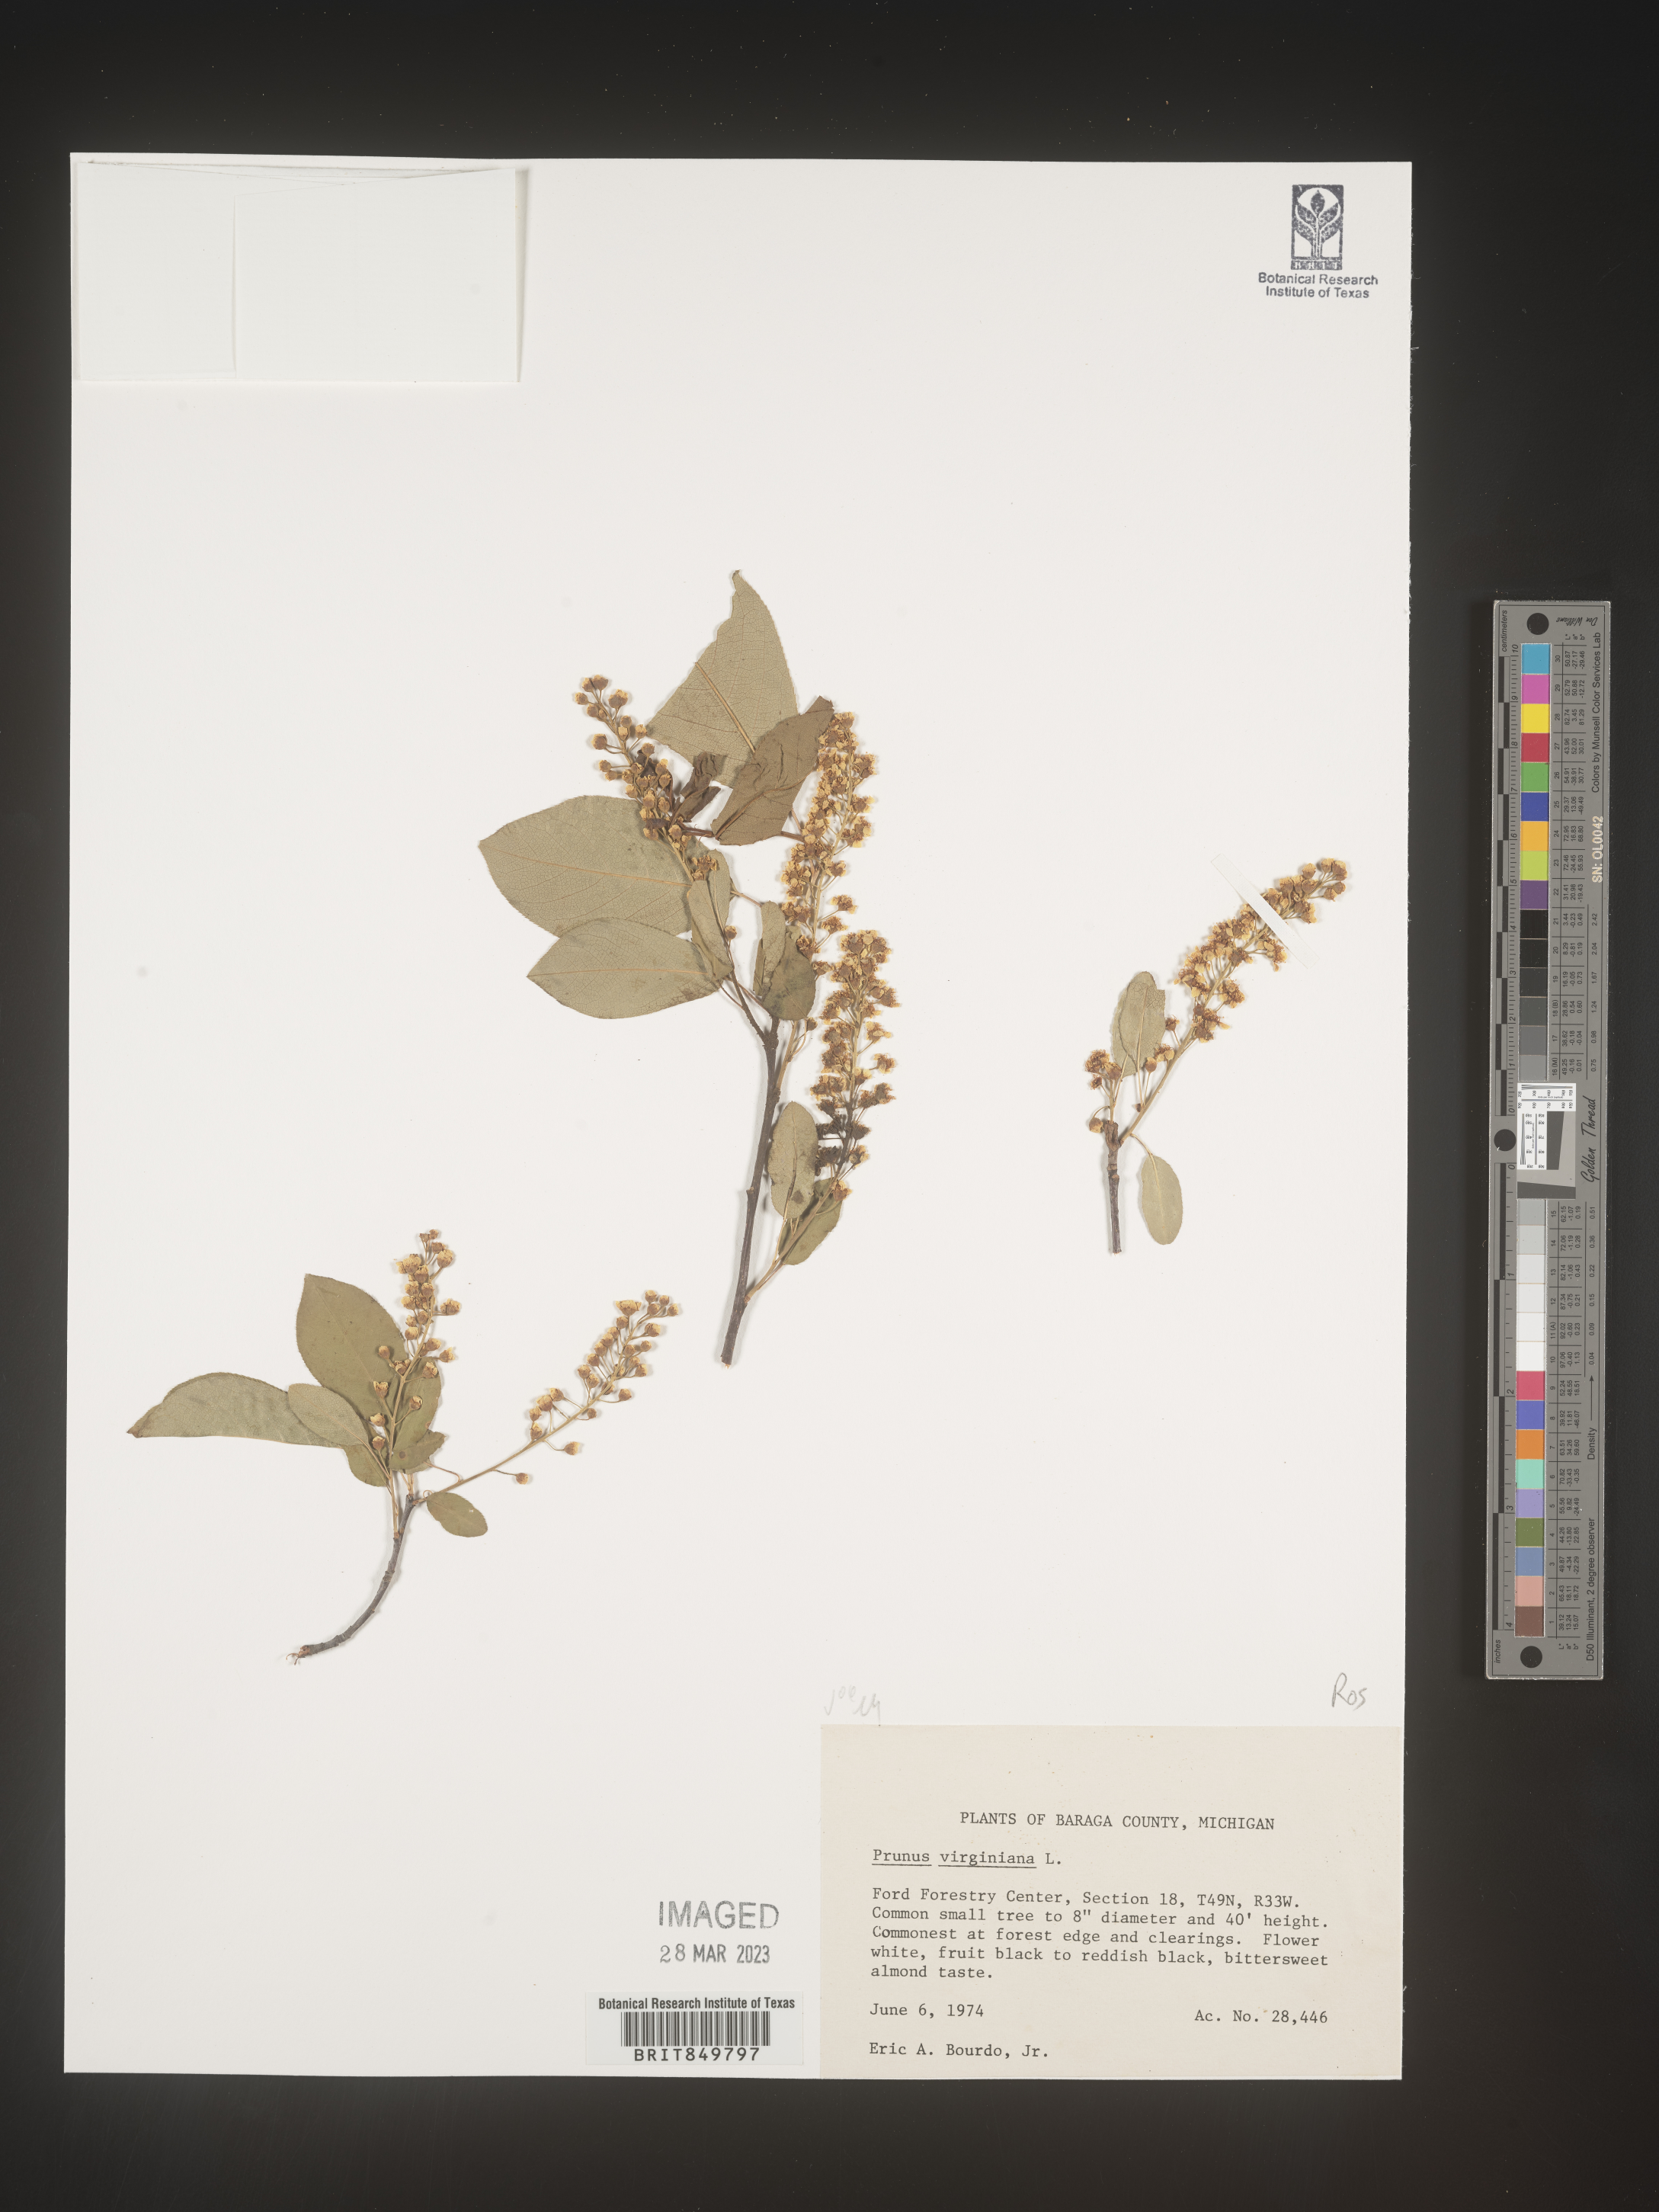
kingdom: Plantae
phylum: Tracheophyta
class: Magnoliopsida
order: Rosales
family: Rosaceae
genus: Prunus
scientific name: Prunus virginiana
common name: Chokecherry
